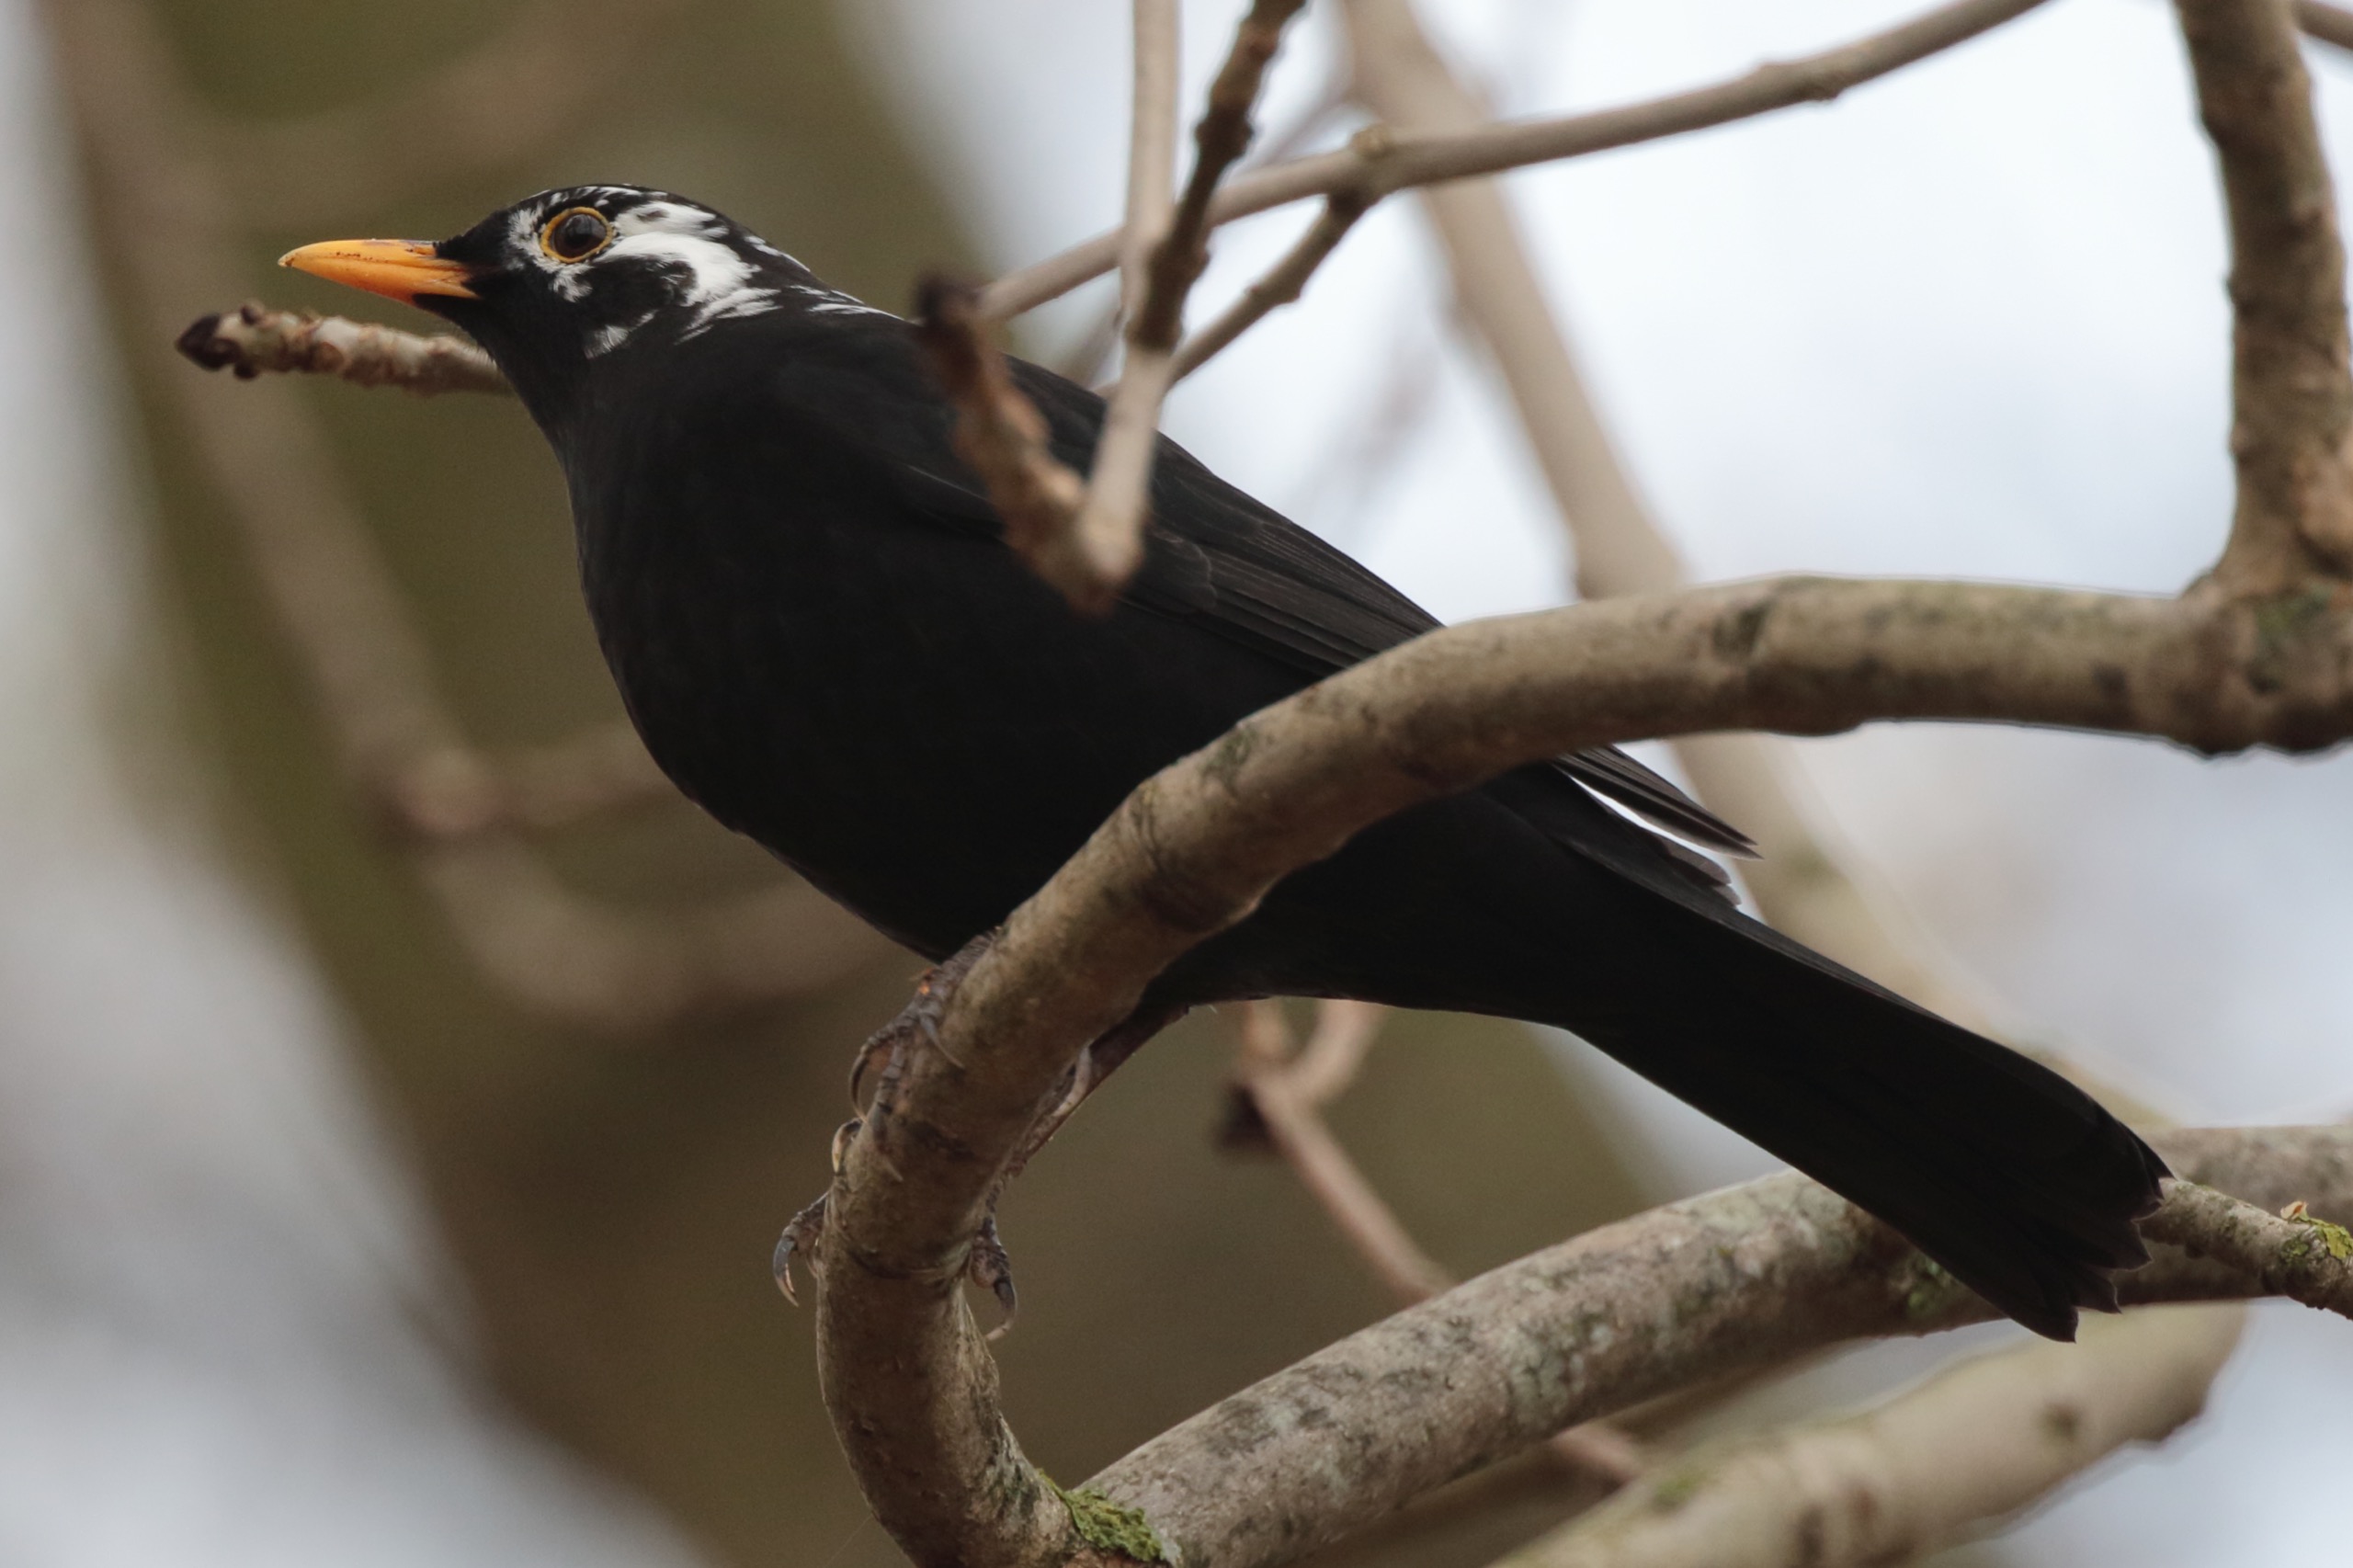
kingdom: Animalia
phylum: Chordata
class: Aves
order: Passeriformes
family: Turdidae
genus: Turdus
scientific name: Turdus merula
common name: Solsort
